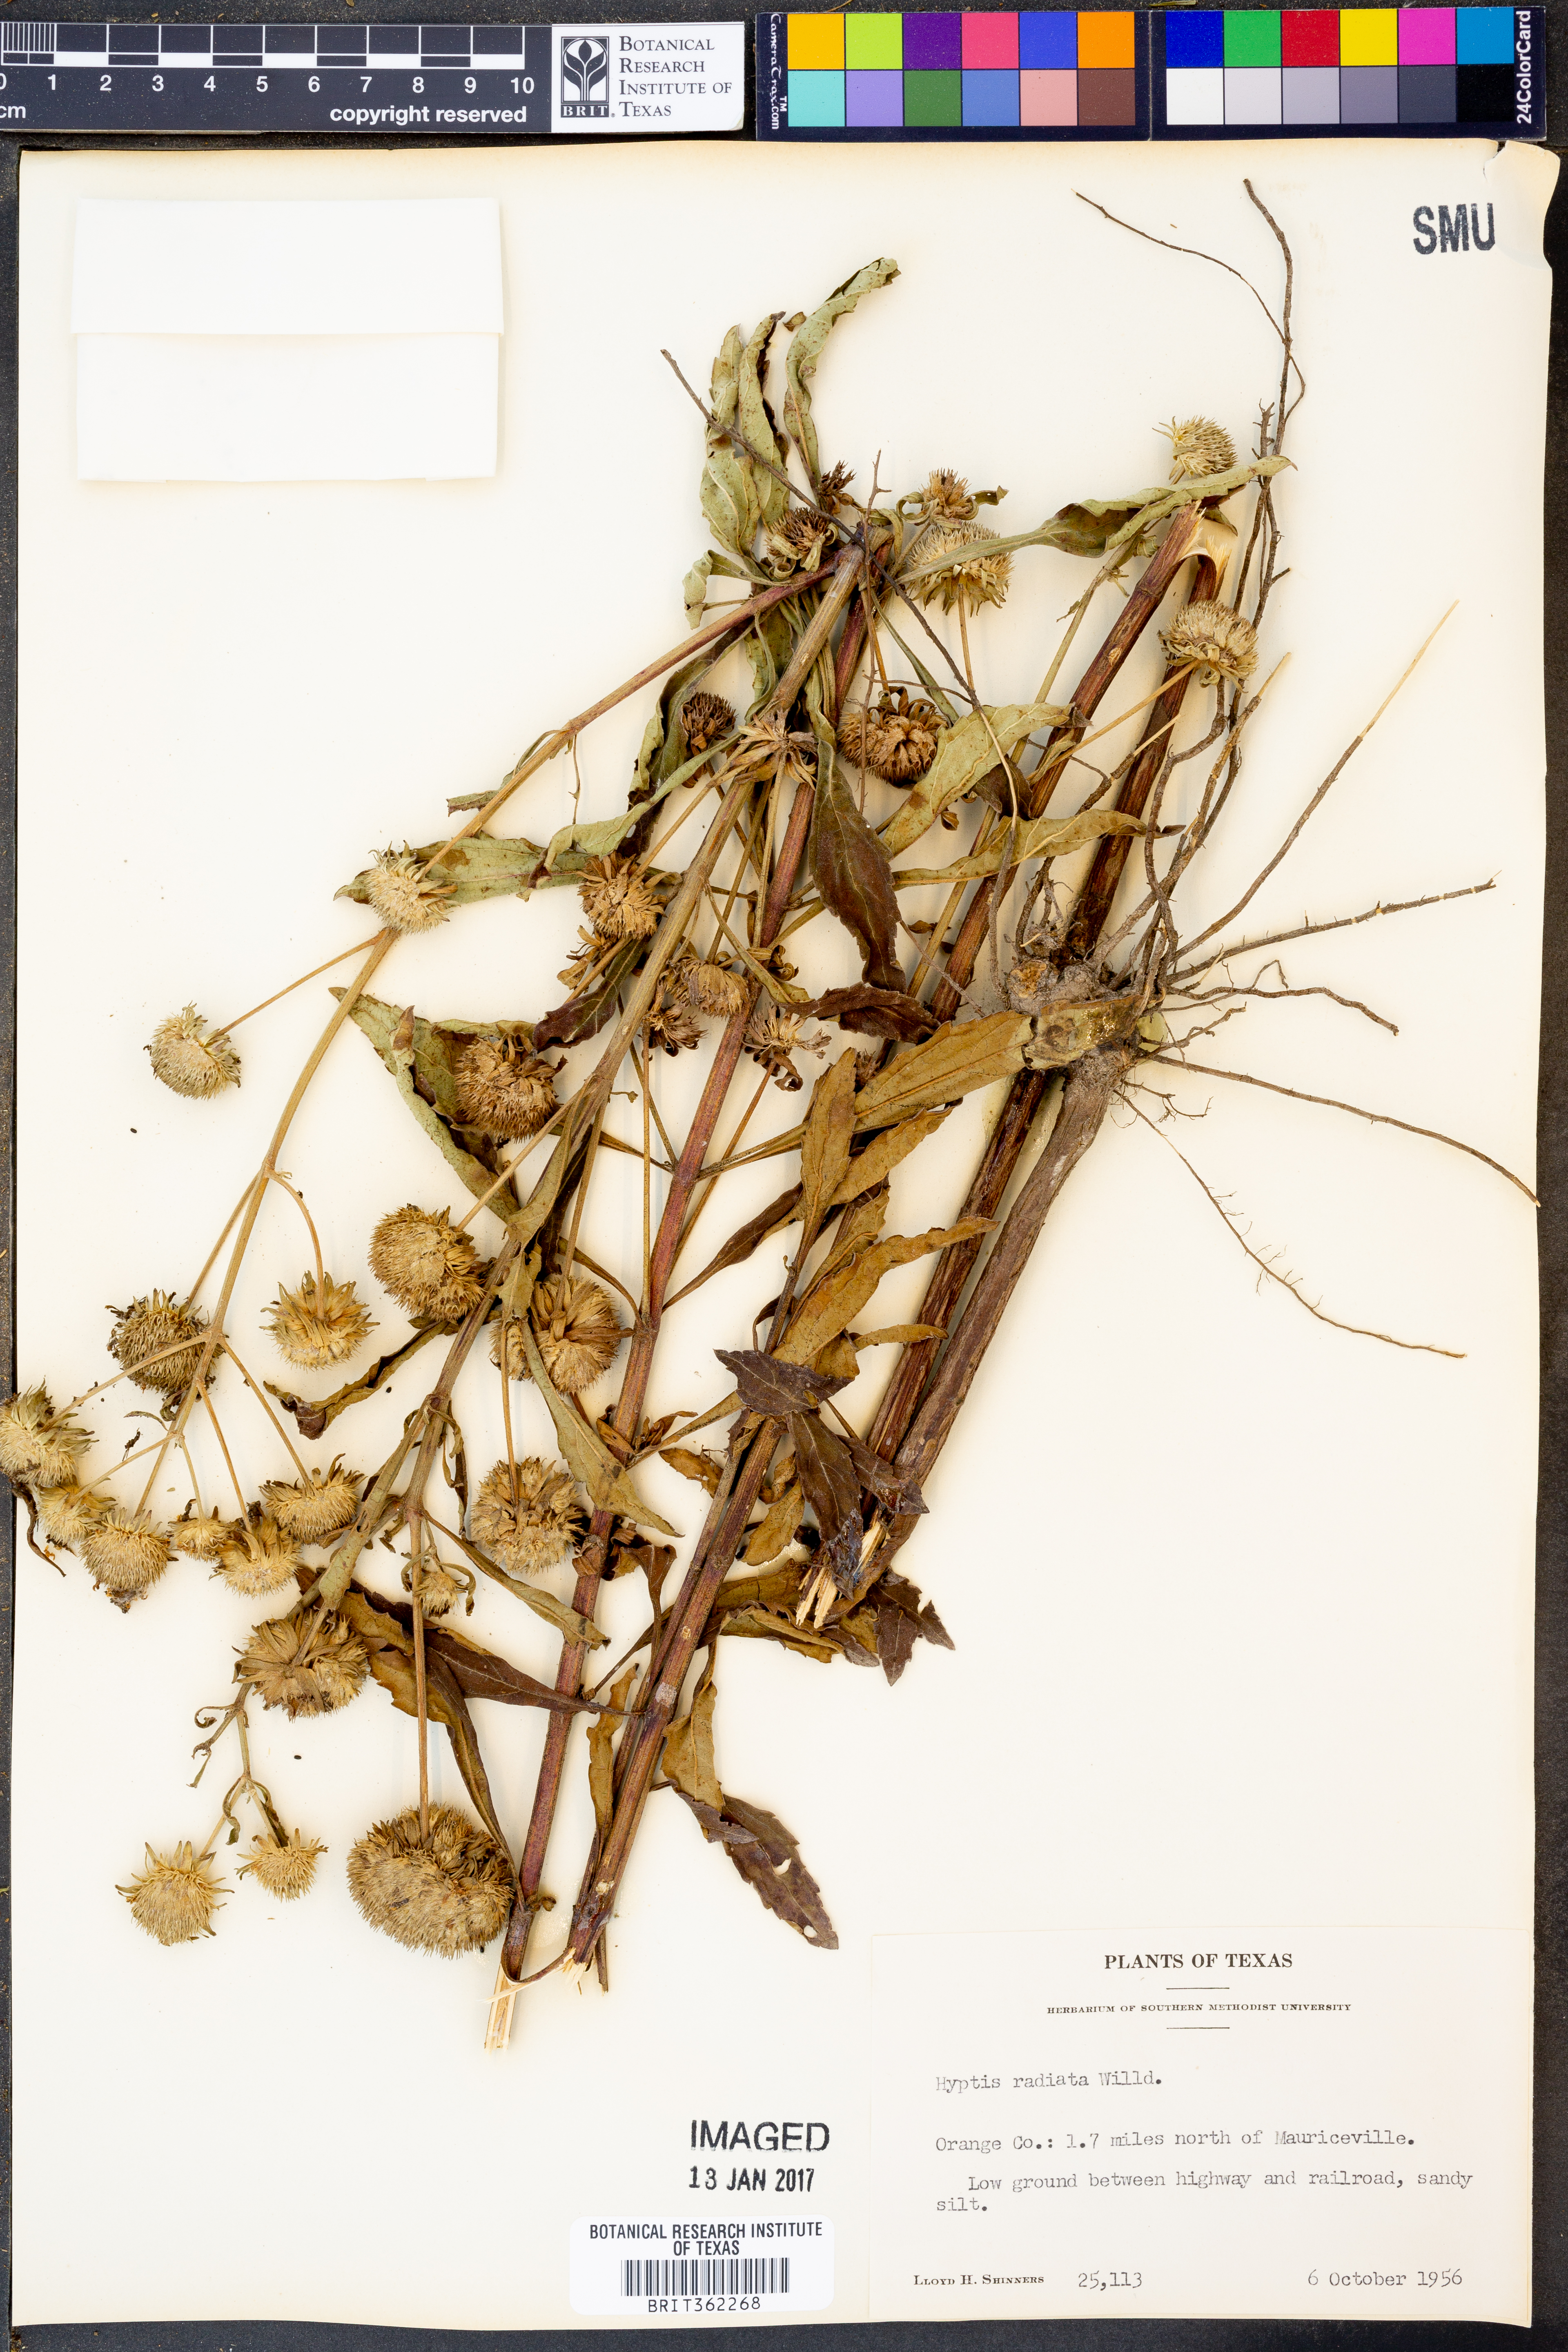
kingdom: Plantae
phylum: Tracheophyta
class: Magnoliopsida
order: Lamiales
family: Lamiaceae
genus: Hyptis
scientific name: Hyptis alata
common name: Cluster bush-mint
